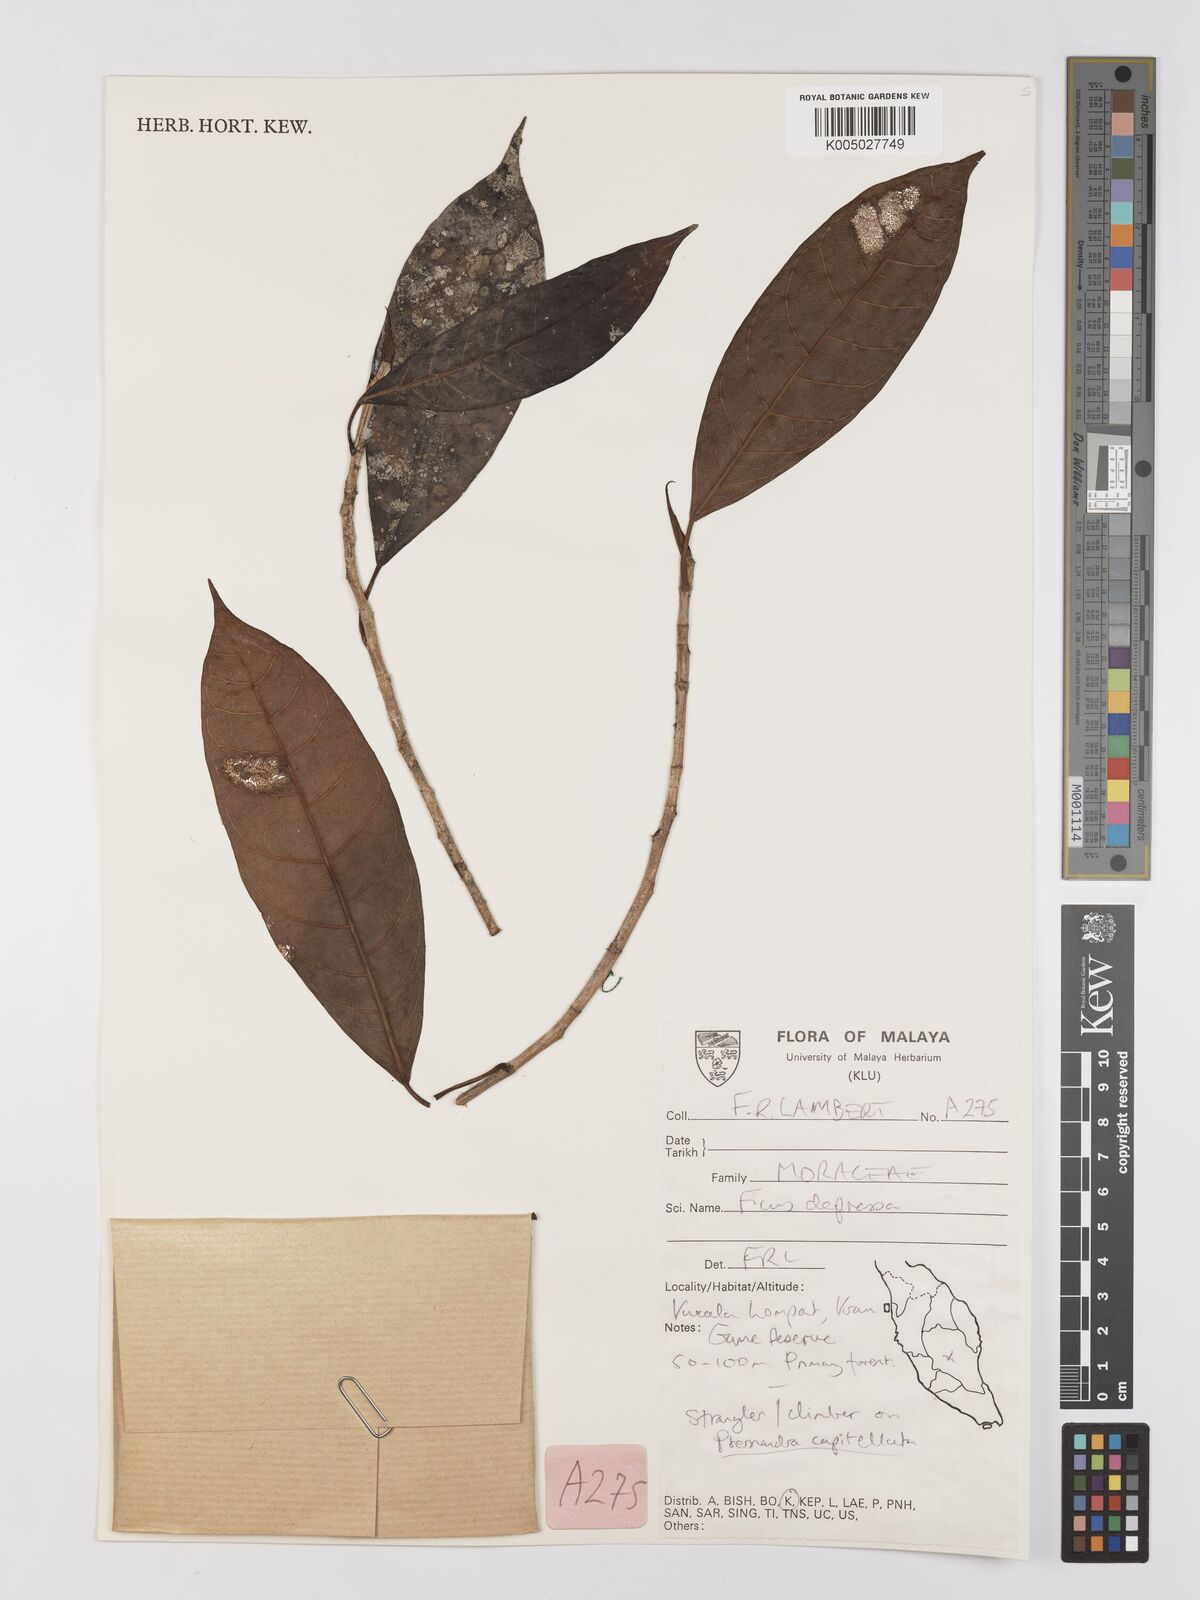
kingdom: Plantae
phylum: Tracheophyta
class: Magnoliopsida
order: Rosales
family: Moraceae
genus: Ficus
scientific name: Ficus
